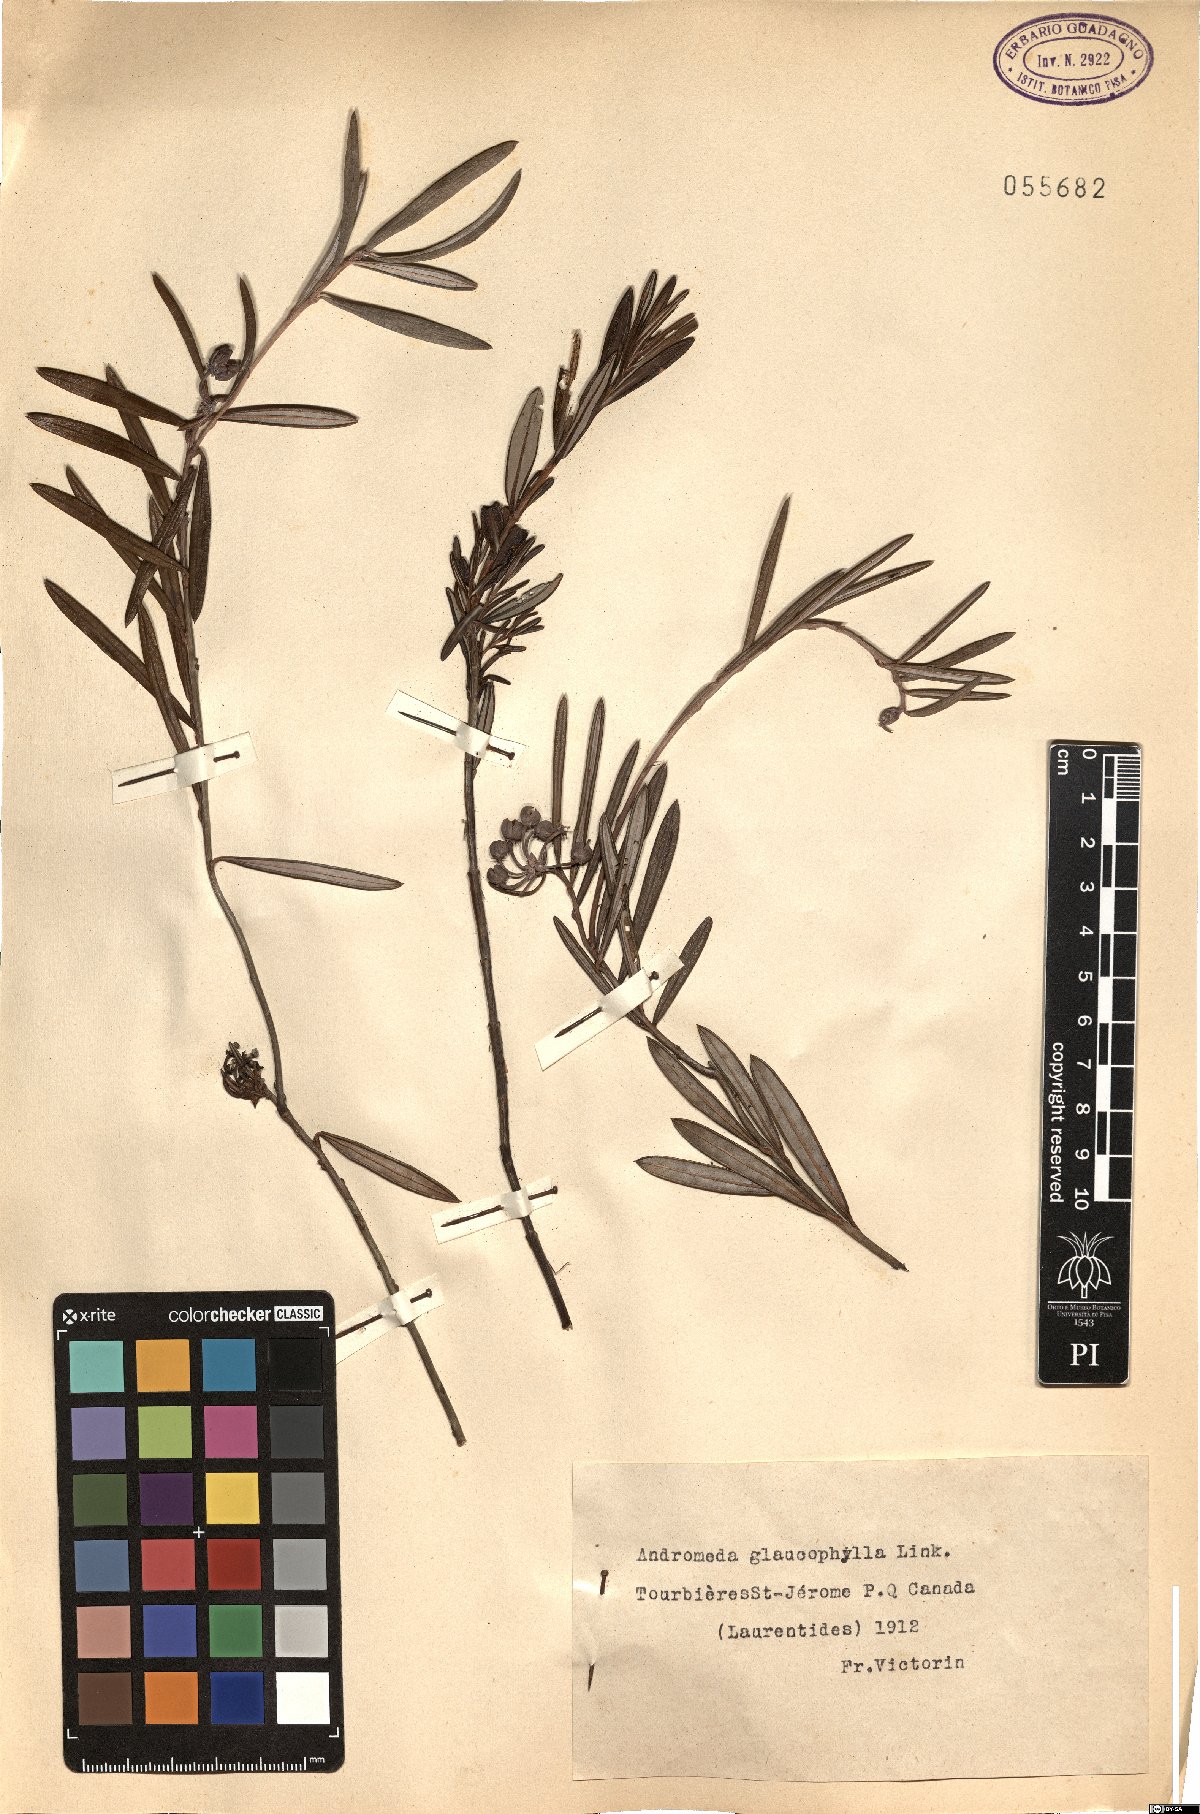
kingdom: Plantae
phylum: Tracheophyta
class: Magnoliopsida
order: Ericales
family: Ericaceae
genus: Andromeda
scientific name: Andromeda polifolia
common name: Bog-rosemary
